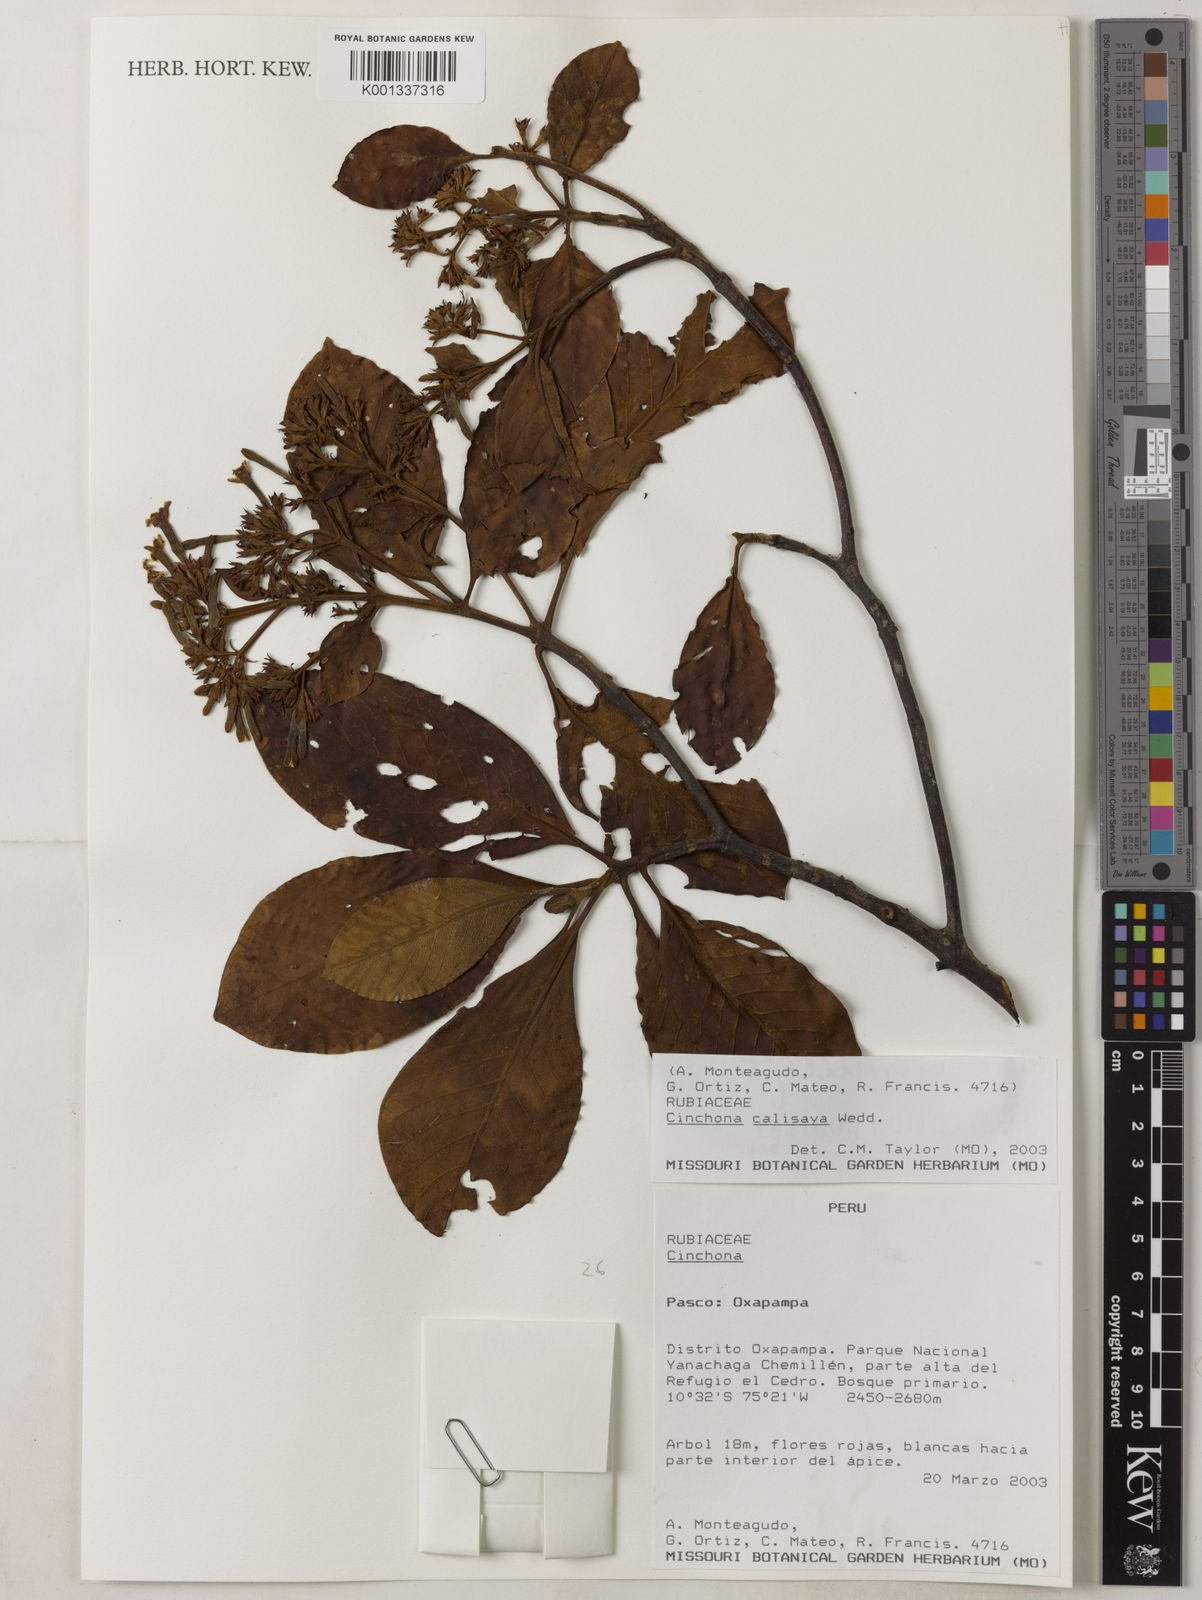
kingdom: Plantae
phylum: Tracheophyta
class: Magnoliopsida
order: Gentianales
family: Rubiaceae
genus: Cinchona
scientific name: Cinchona calisaya
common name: Ledgerbark
